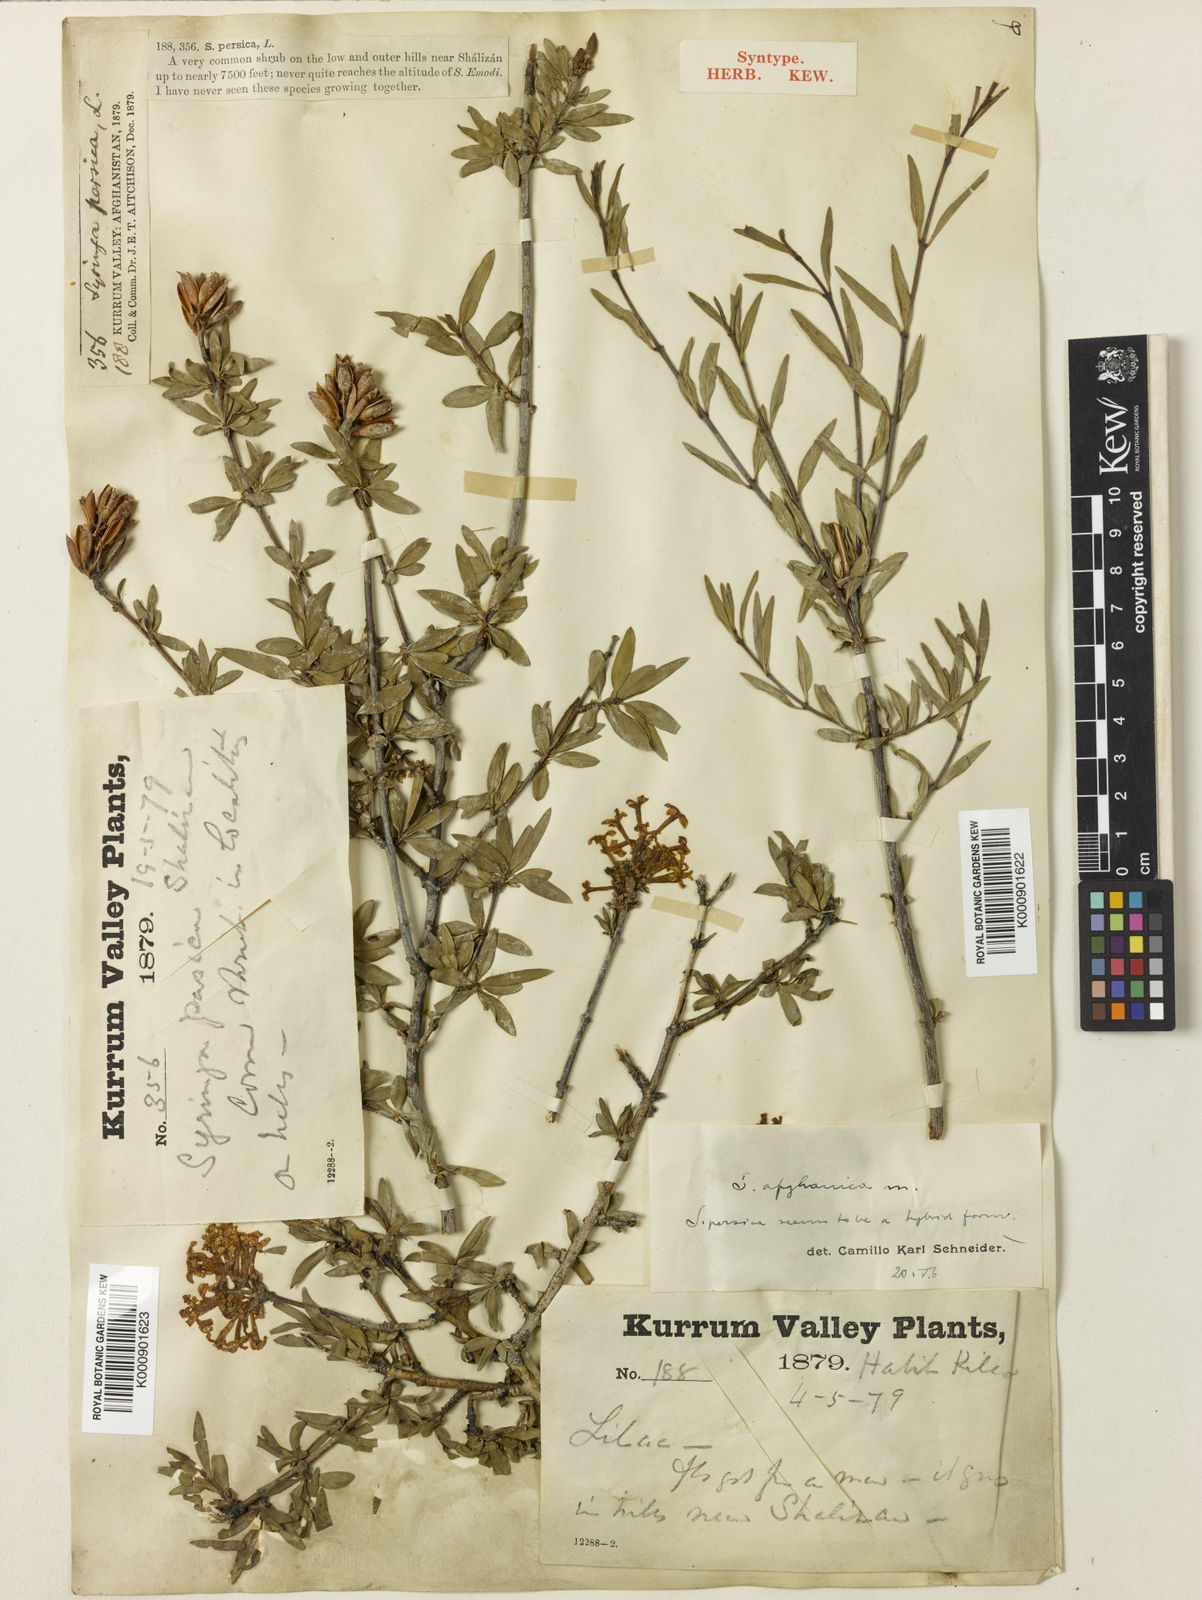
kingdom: Plantae
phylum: Tracheophyta
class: Magnoliopsida
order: Lamiales
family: Oleaceae
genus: Syringa
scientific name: Syringa persica
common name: Persian lilac
